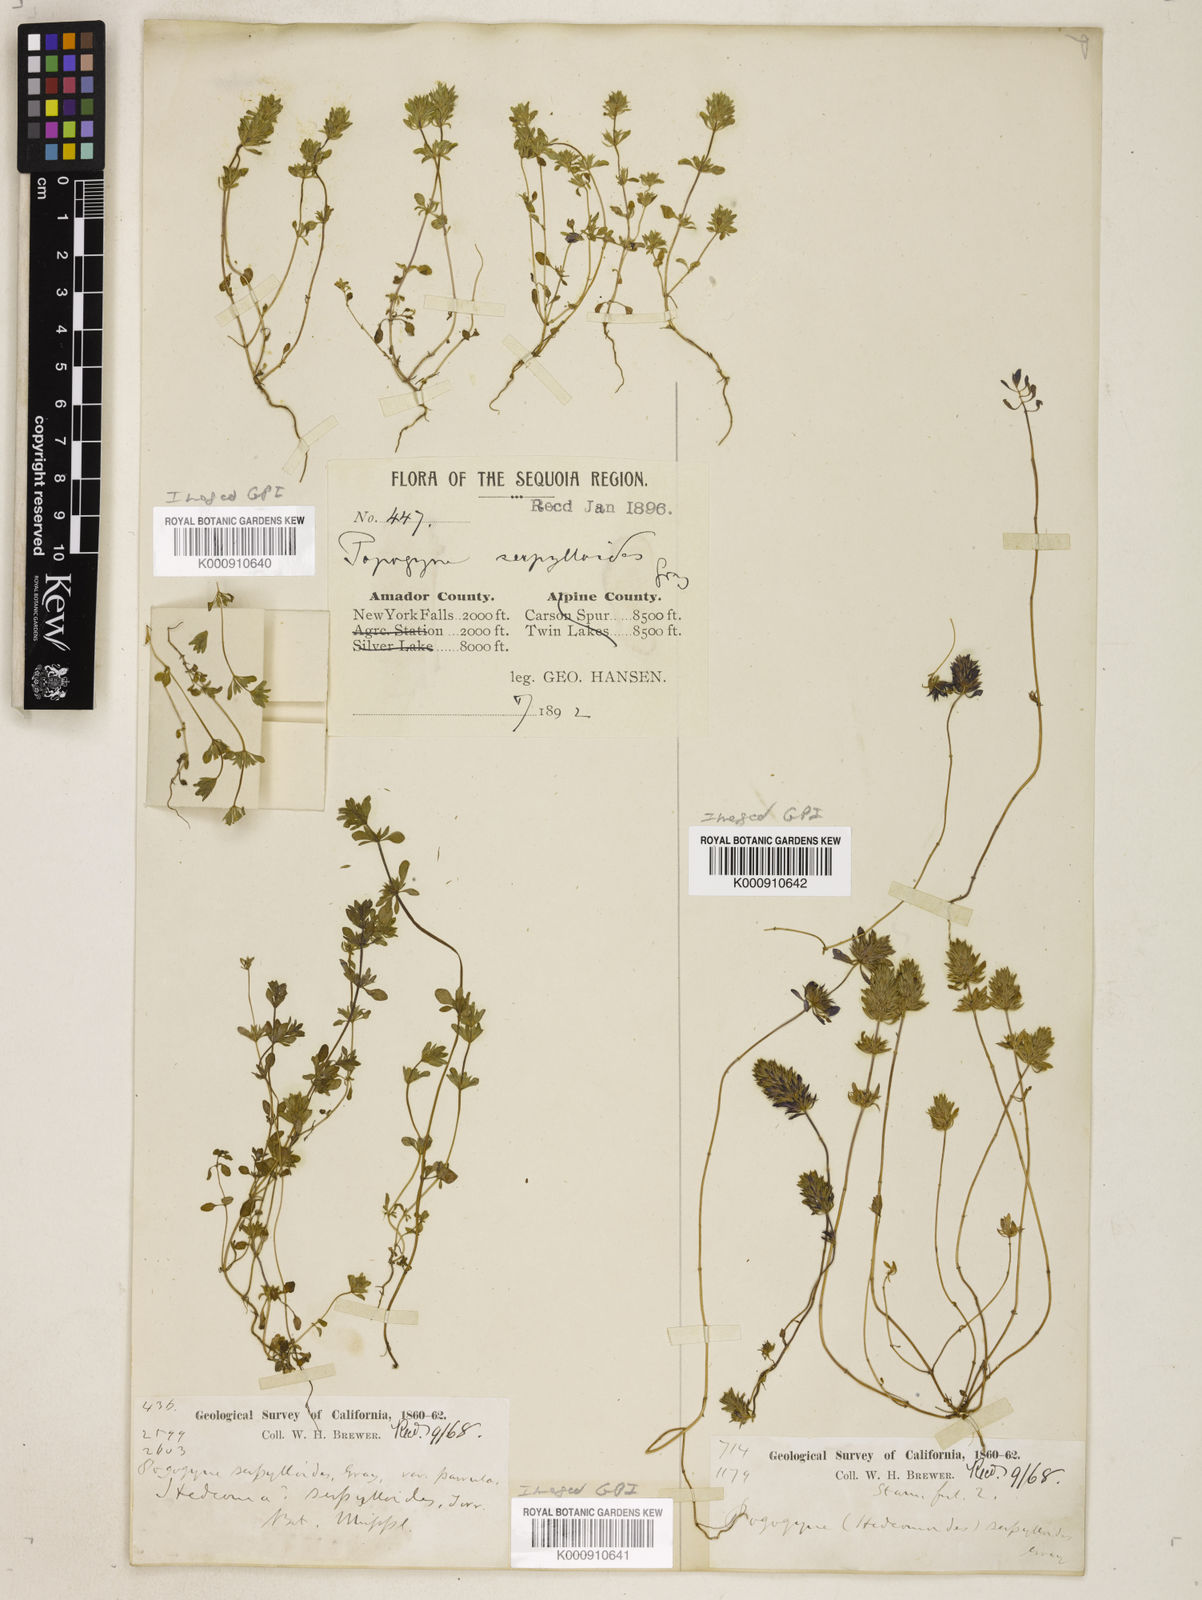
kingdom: Plantae
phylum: Tracheophyta
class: Magnoliopsida
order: Lamiales
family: Lamiaceae
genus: Pogogyne
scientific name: Pogogyne serpylloides
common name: Thymeleaf mesamint
